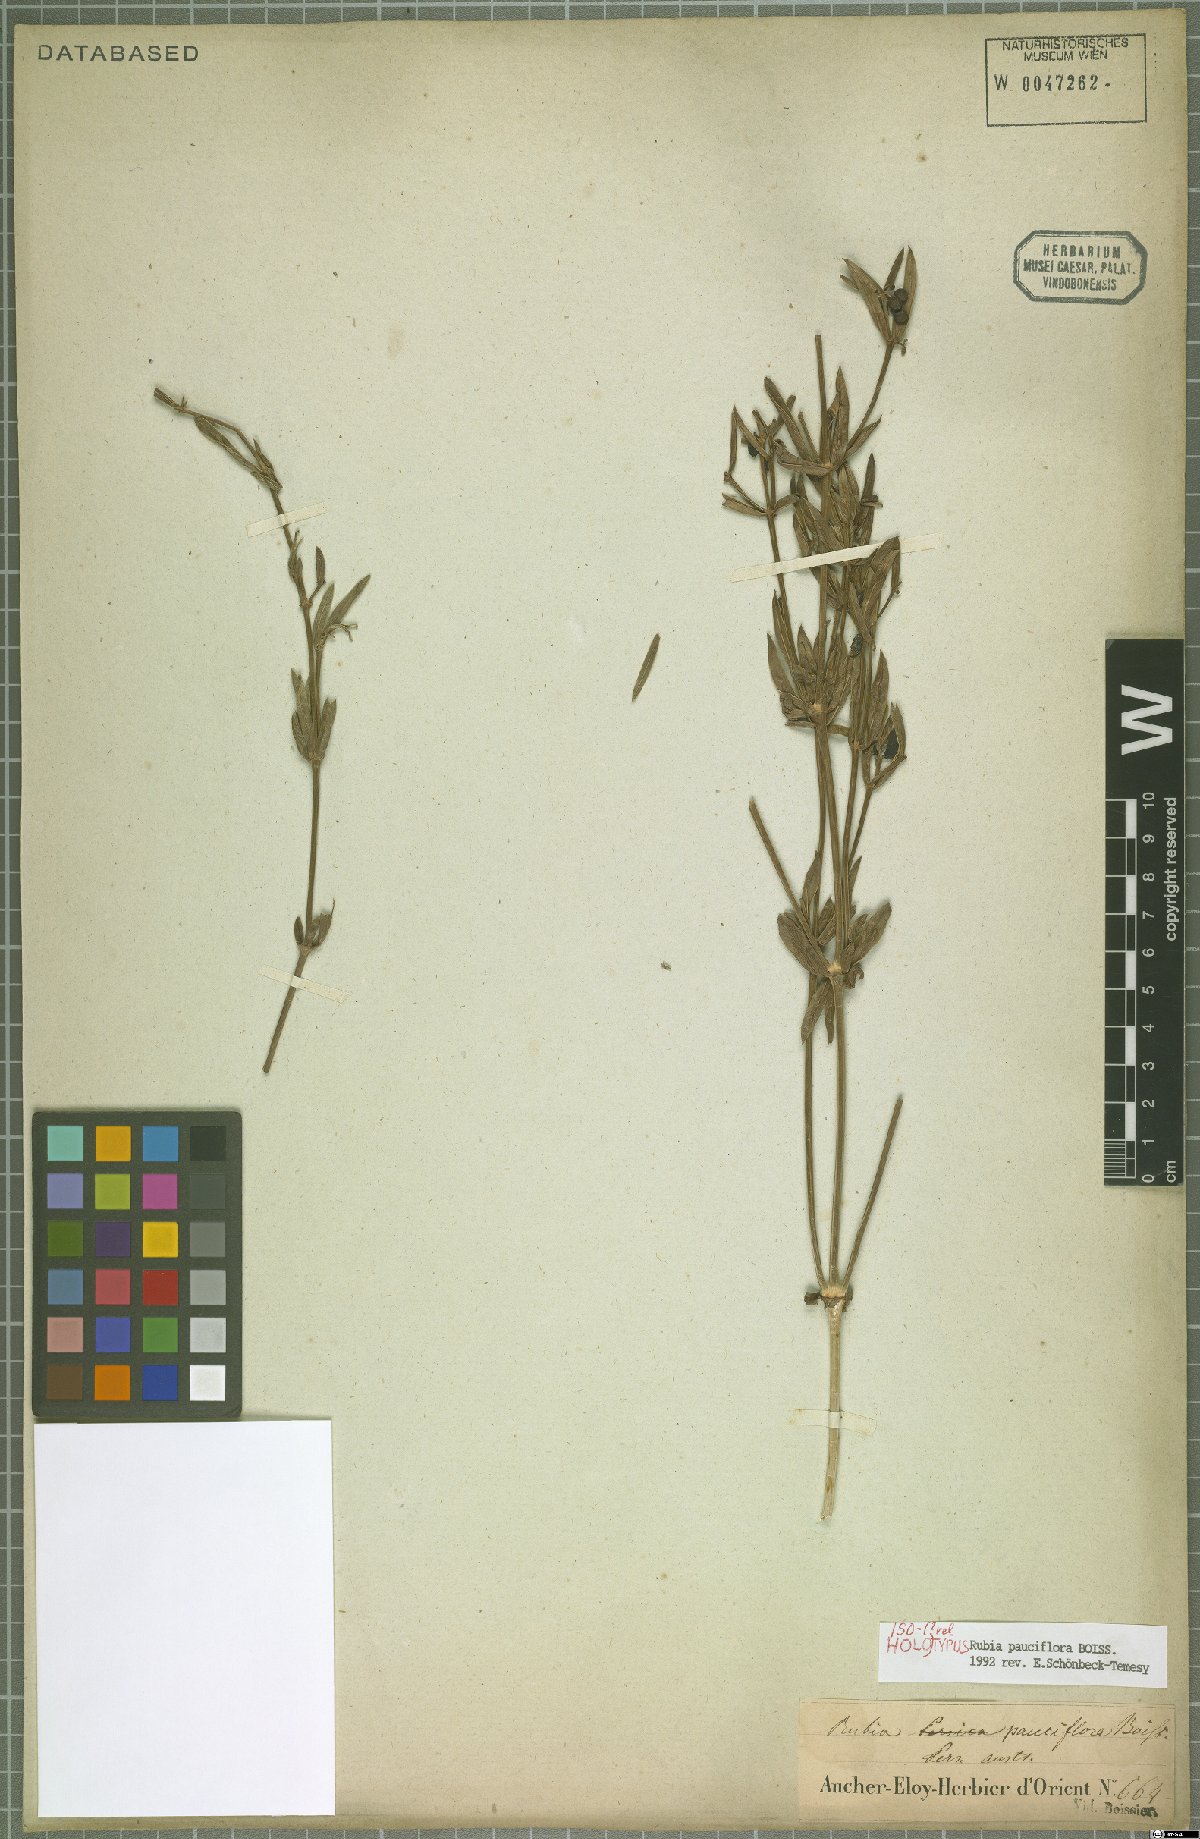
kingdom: Plantae
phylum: Tracheophyta
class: Magnoliopsida
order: Gentianales
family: Rubiaceae
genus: Rubia
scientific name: Rubia pauciflora
